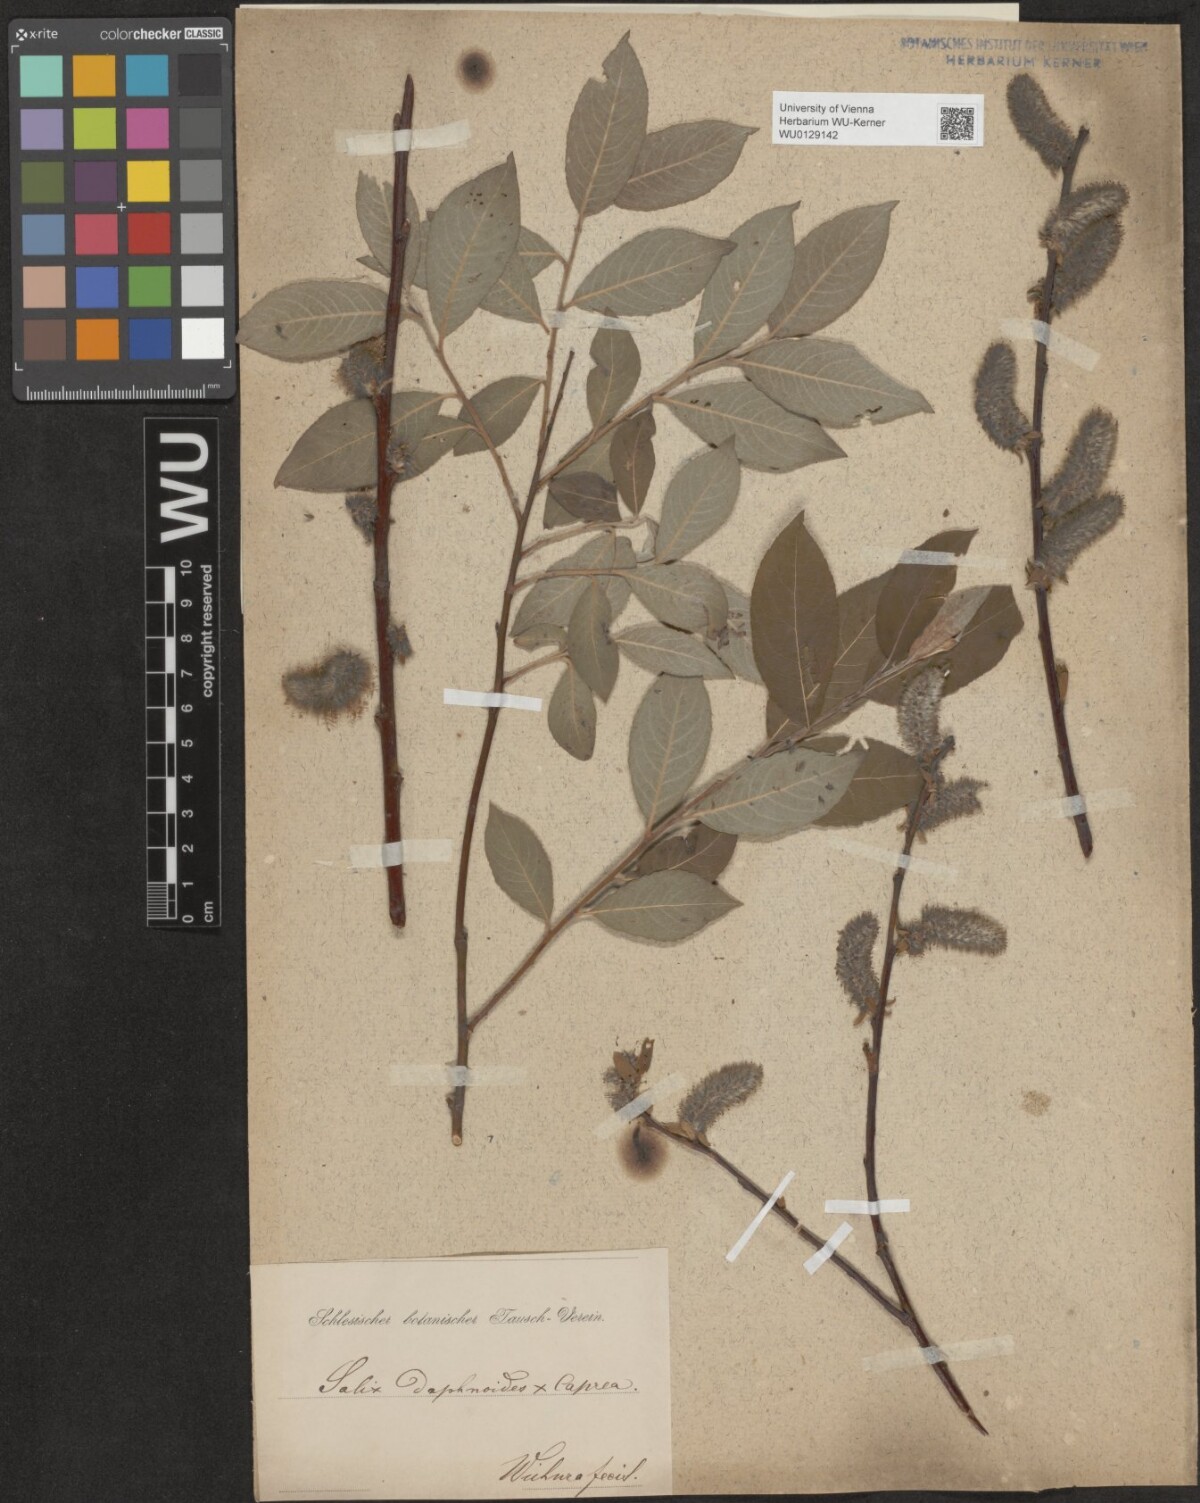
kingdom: Plantae
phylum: Tracheophyta
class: Magnoliopsida
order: Malpighiales
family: Salicaceae
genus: Salix
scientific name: Salix erdingeri
